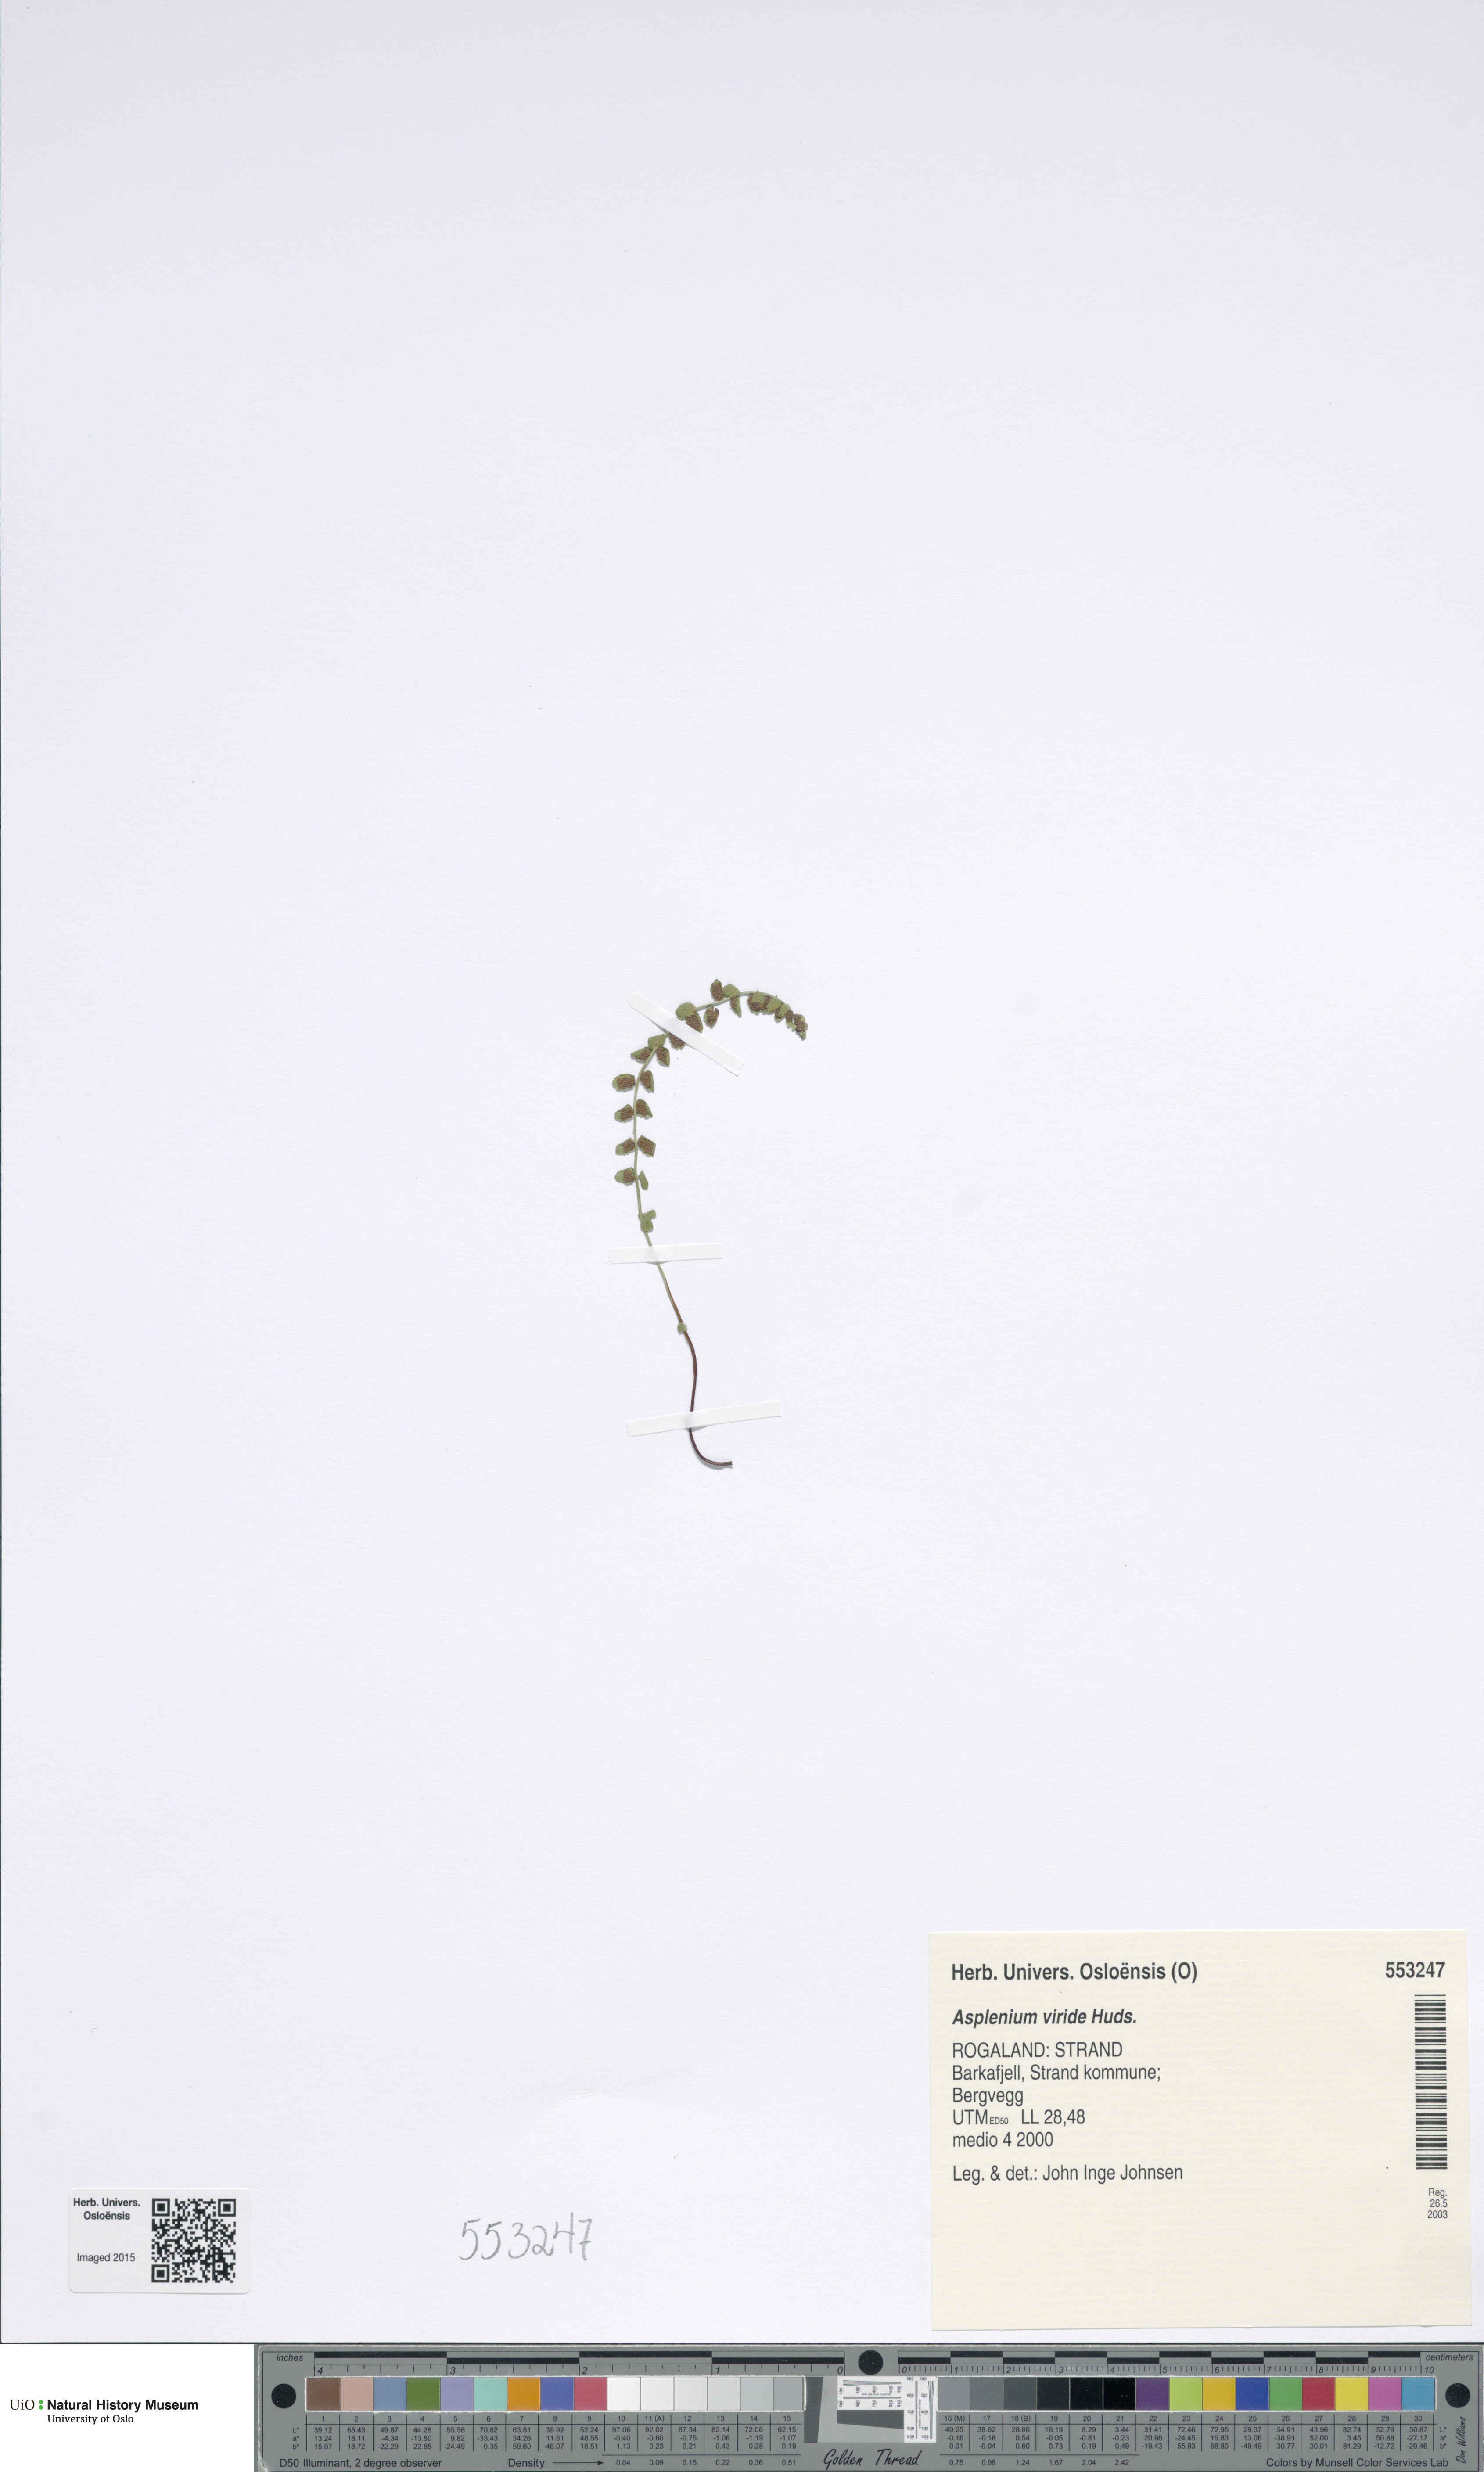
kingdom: Plantae
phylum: Tracheophyta
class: Polypodiopsida
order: Polypodiales
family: Aspleniaceae
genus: Asplenium
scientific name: Asplenium viride
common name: Green spleenwort
